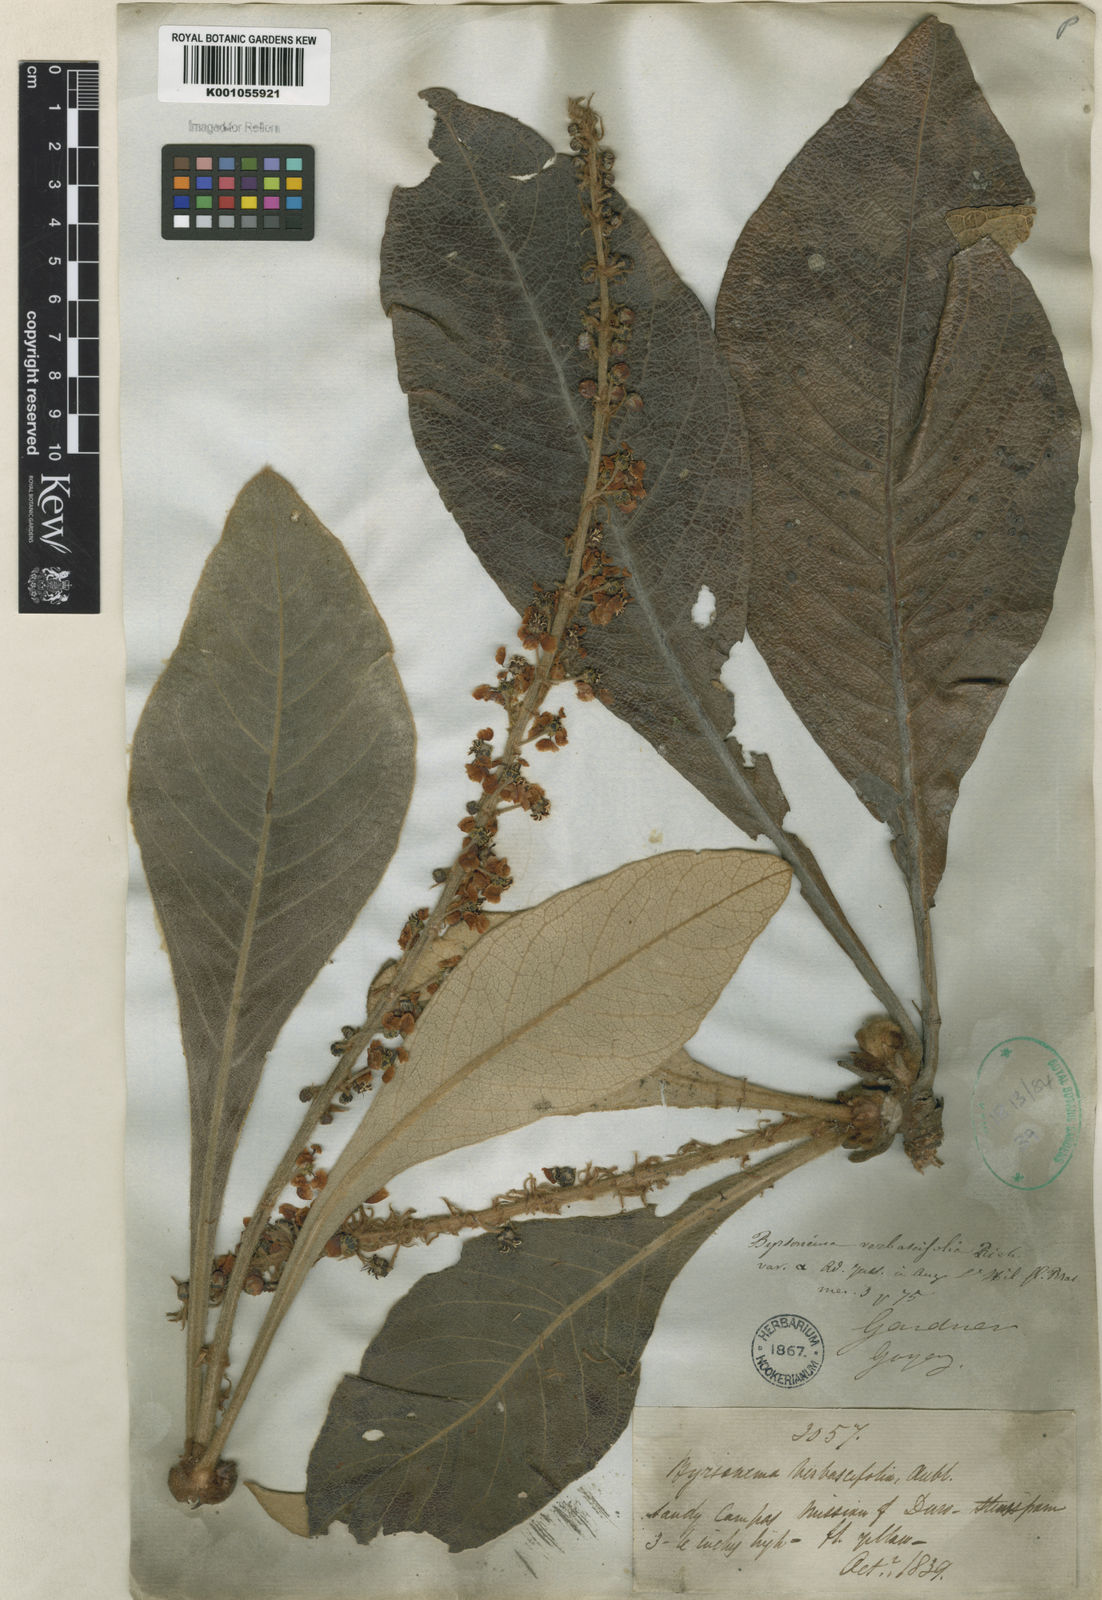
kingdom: Plantae
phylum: Tracheophyta
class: Magnoliopsida
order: Malpighiales
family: Malpighiaceae
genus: Byrsonima
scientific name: Byrsonima verbascifolia
